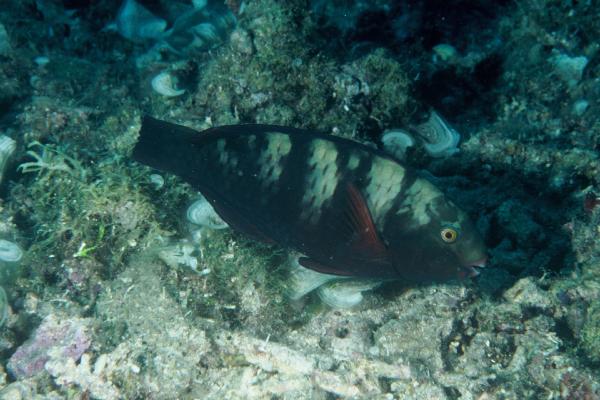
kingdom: Animalia
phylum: Chordata
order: Perciformes
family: Scaridae
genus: Chlorurus
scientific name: Chlorurus bleekeri
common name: Bleeker's parrotfish
